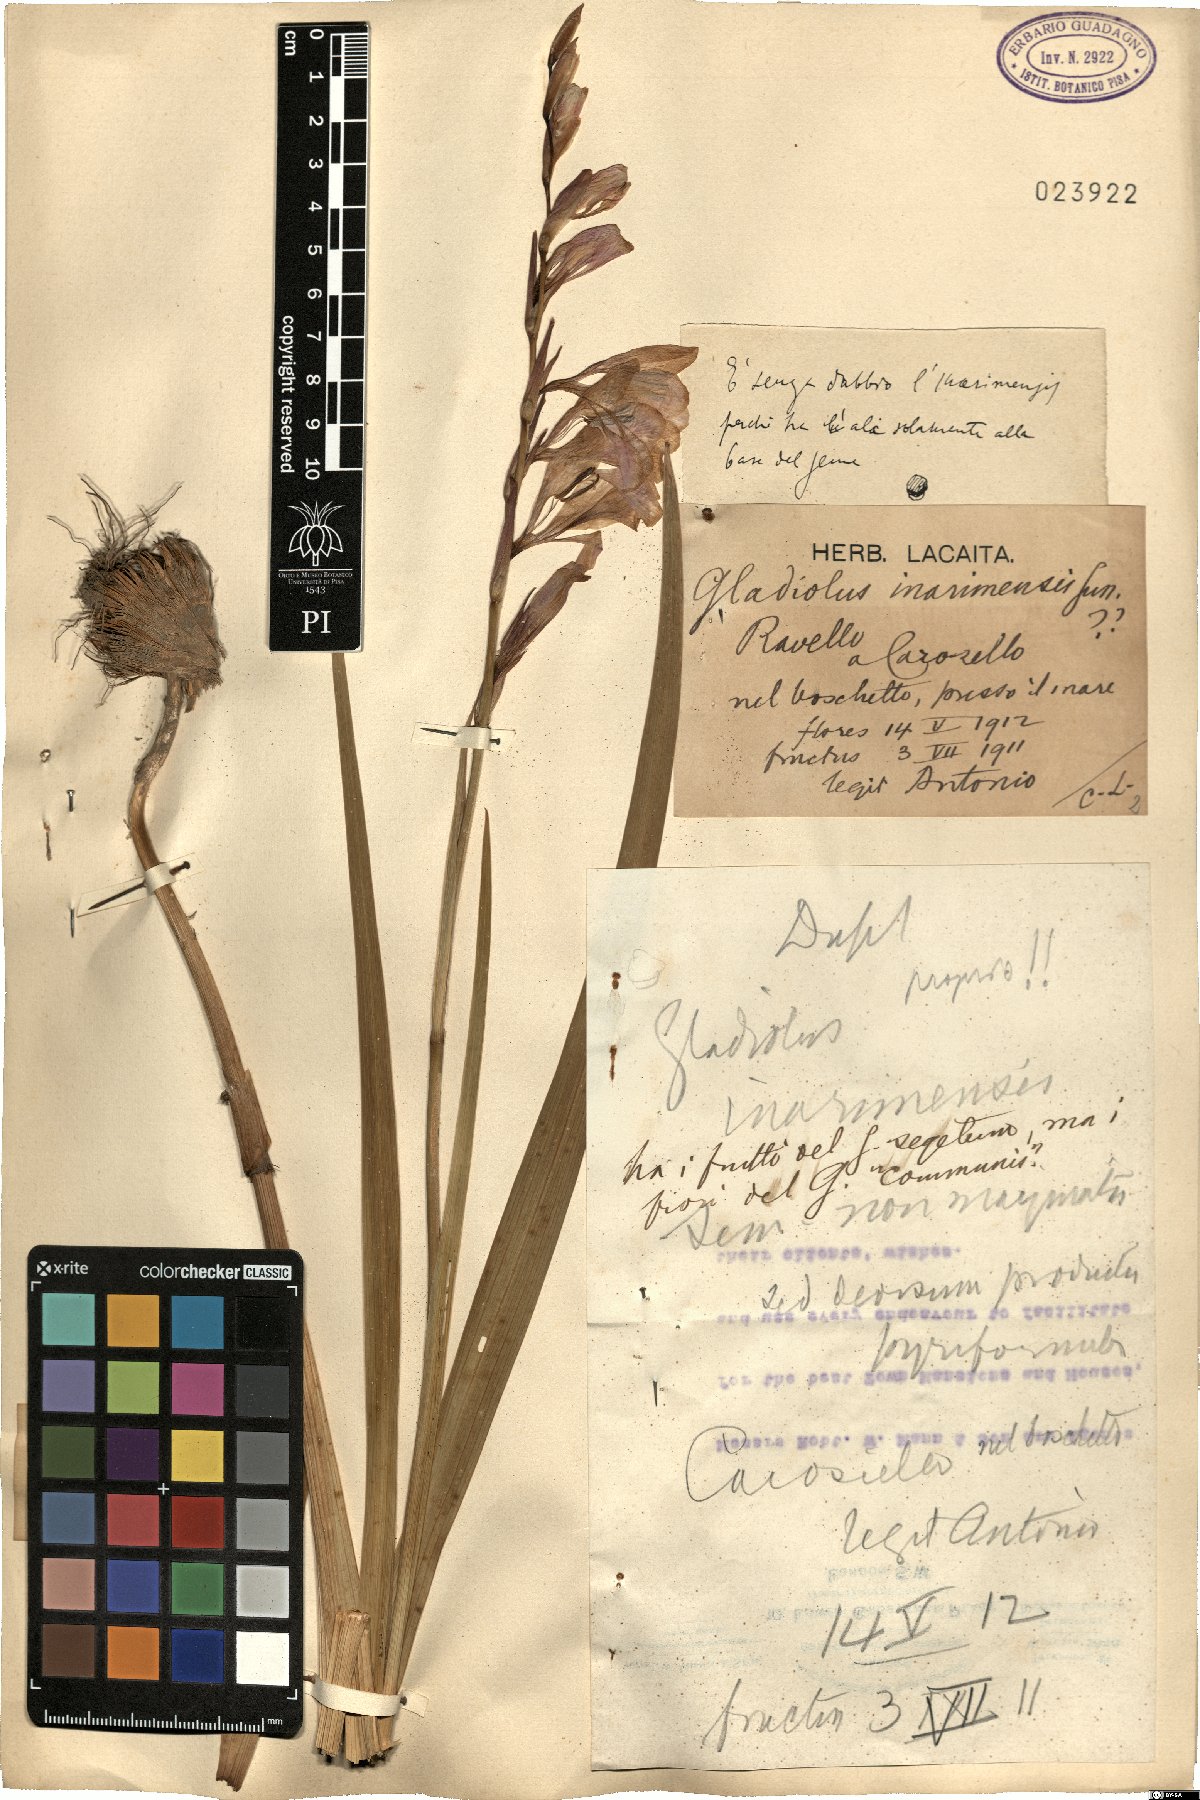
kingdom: Plantae
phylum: Tracheophyta
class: Liliopsida
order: Asparagales
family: Iridaceae
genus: Gladiolus
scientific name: Gladiolus inarimensis
